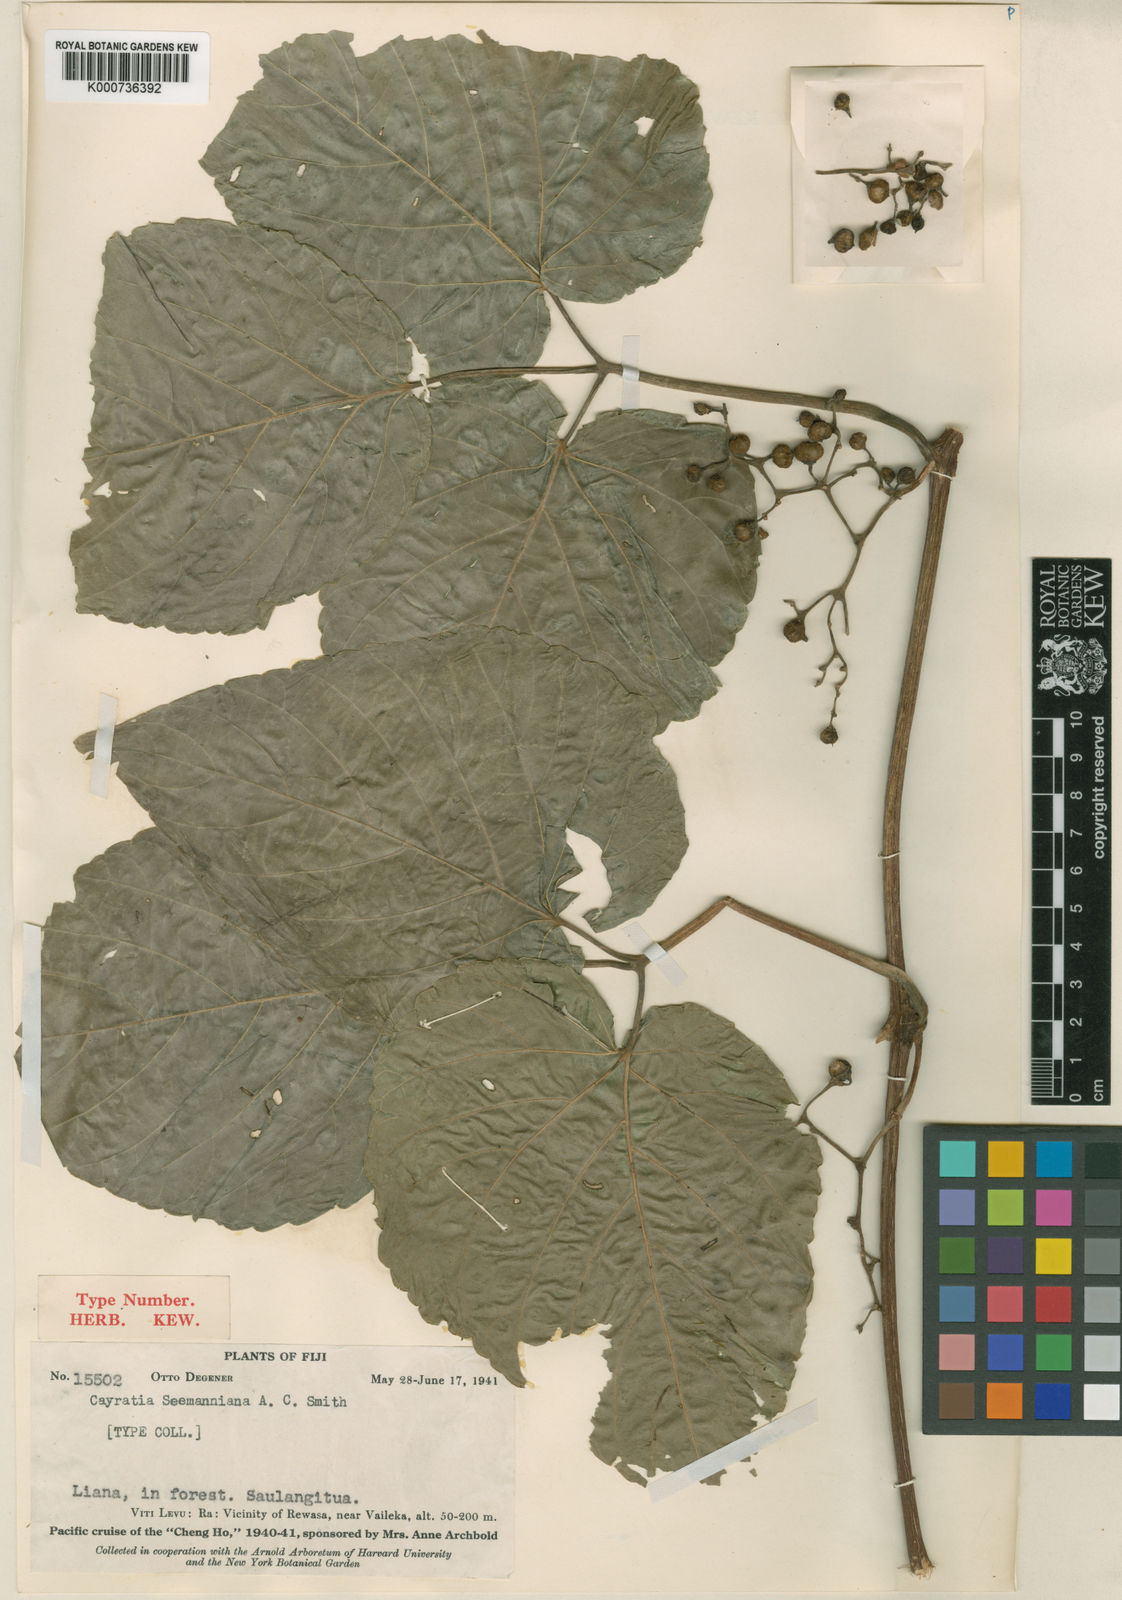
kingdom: Plantae
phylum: Tracheophyta
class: Magnoliopsida
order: Vitales
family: Vitaceae
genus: Cayratia
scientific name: Cayratia seemanniana
